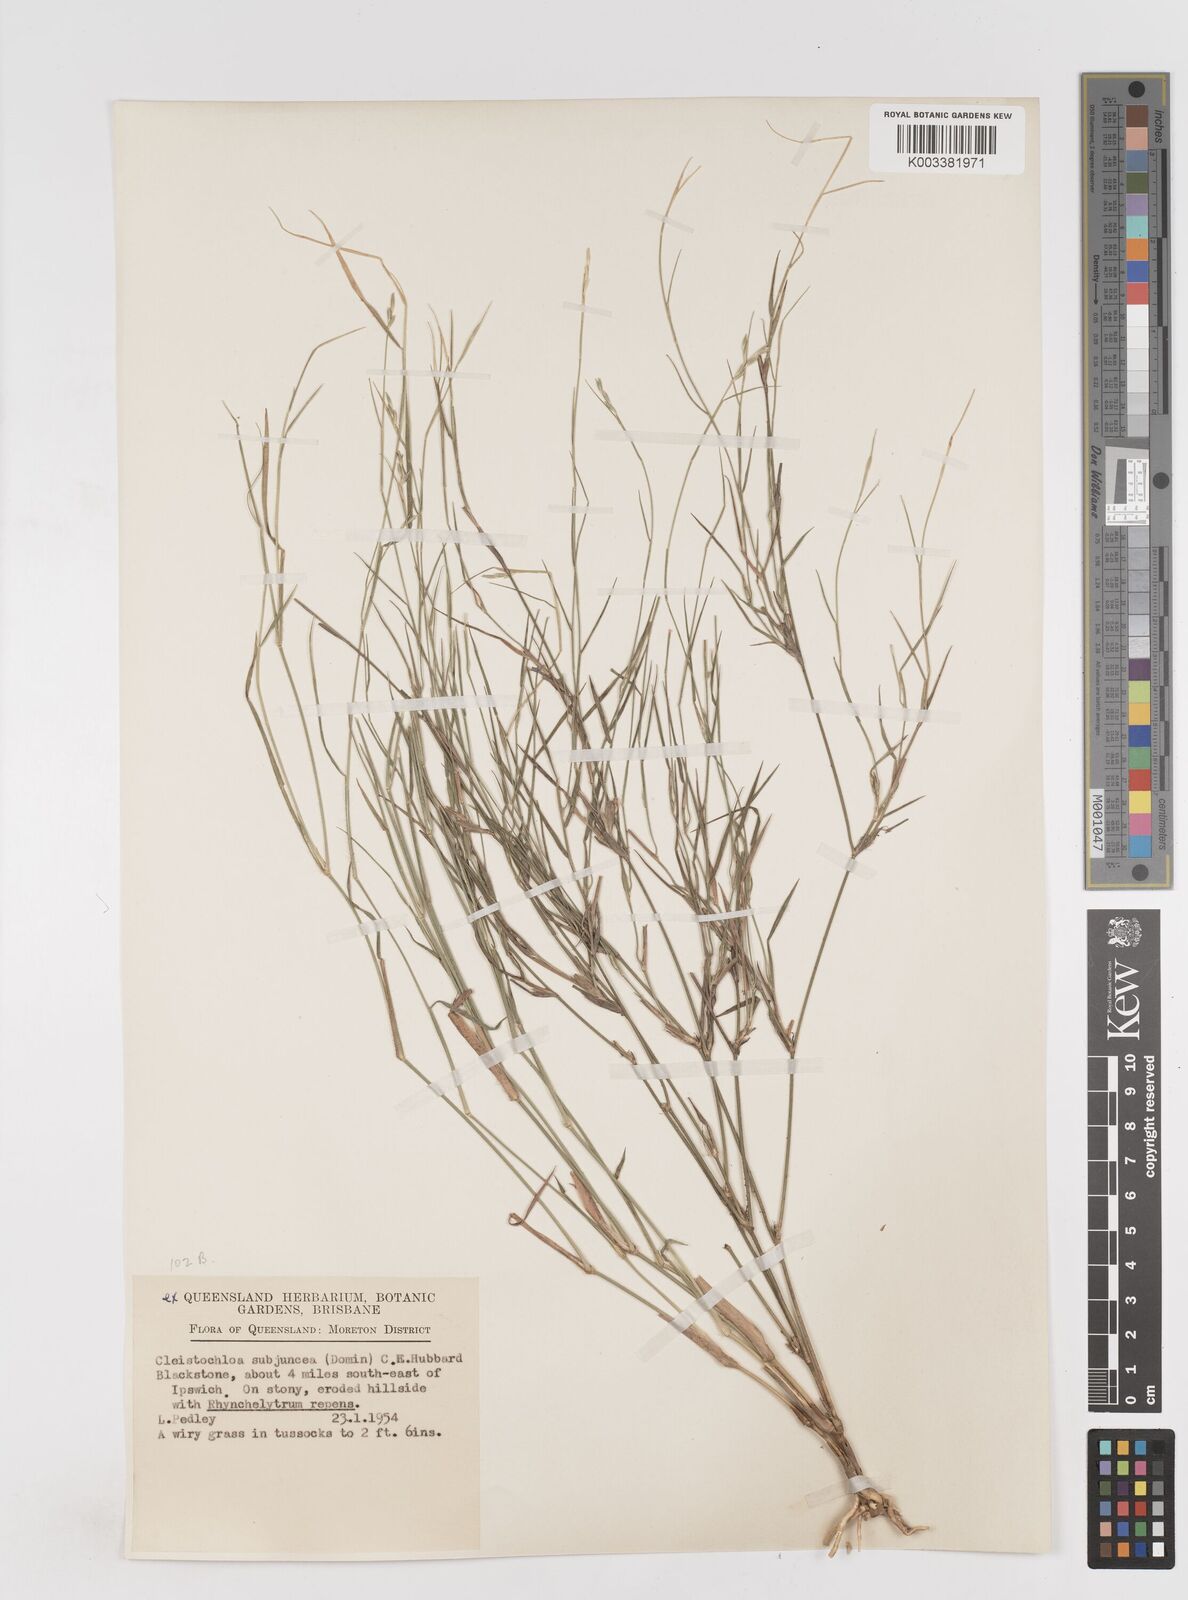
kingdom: Plantae
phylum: Tracheophyta
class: Liliopsida
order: Poales
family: Poaceae
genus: Cleistochloa
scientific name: Cleistochloa subjuncea
